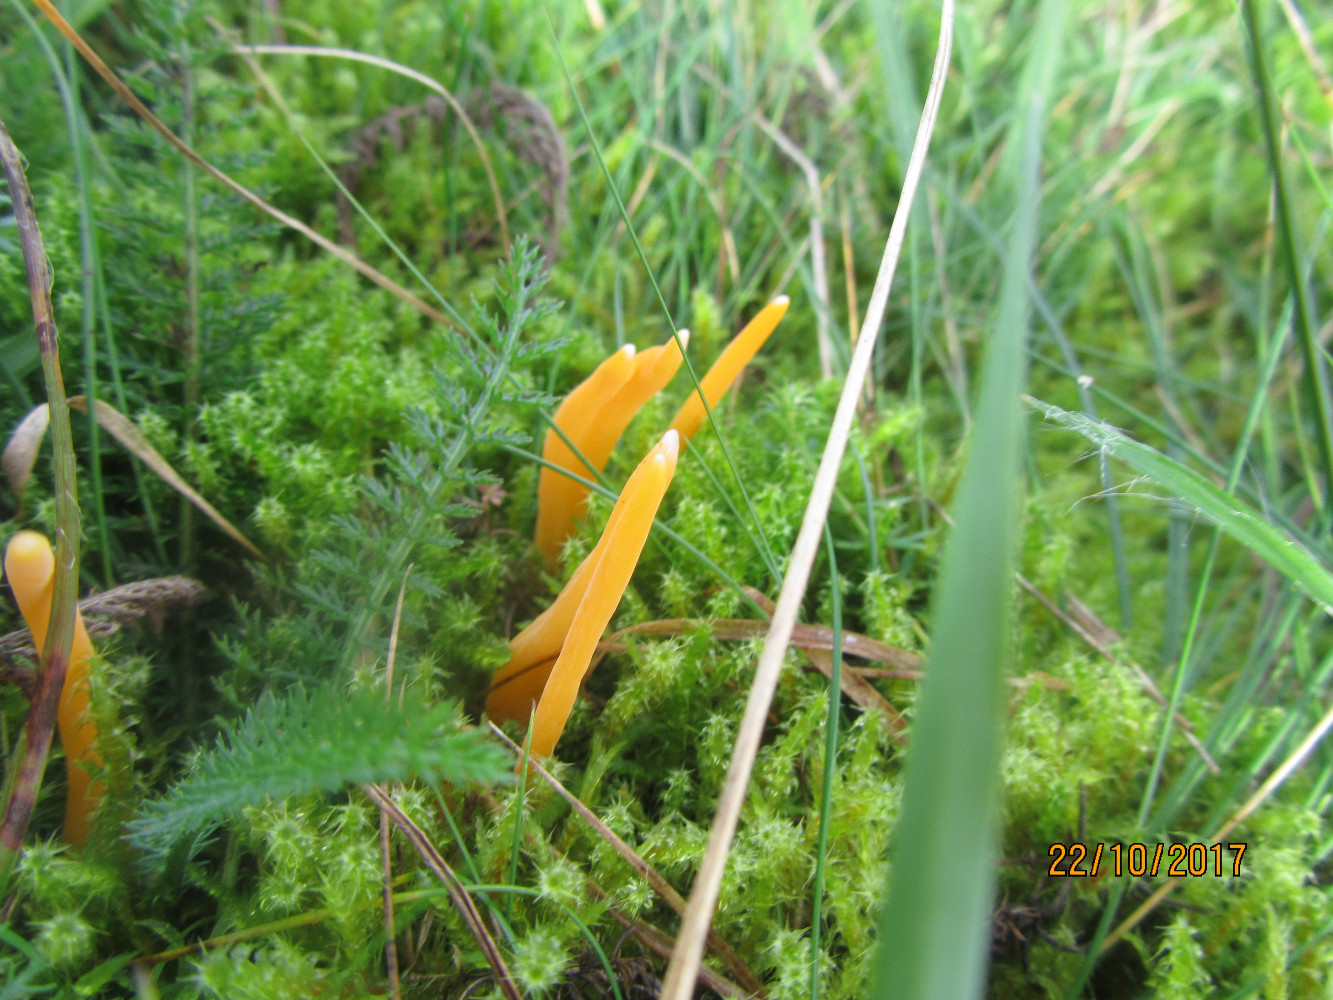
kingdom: Fungi
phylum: Basidiomycota
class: Agaricomycetes
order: Agaricales
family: Clavariaceae
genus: Clavulinopsis
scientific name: Clavulinopsis luteoalba
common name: abrikos-køllesvamp
